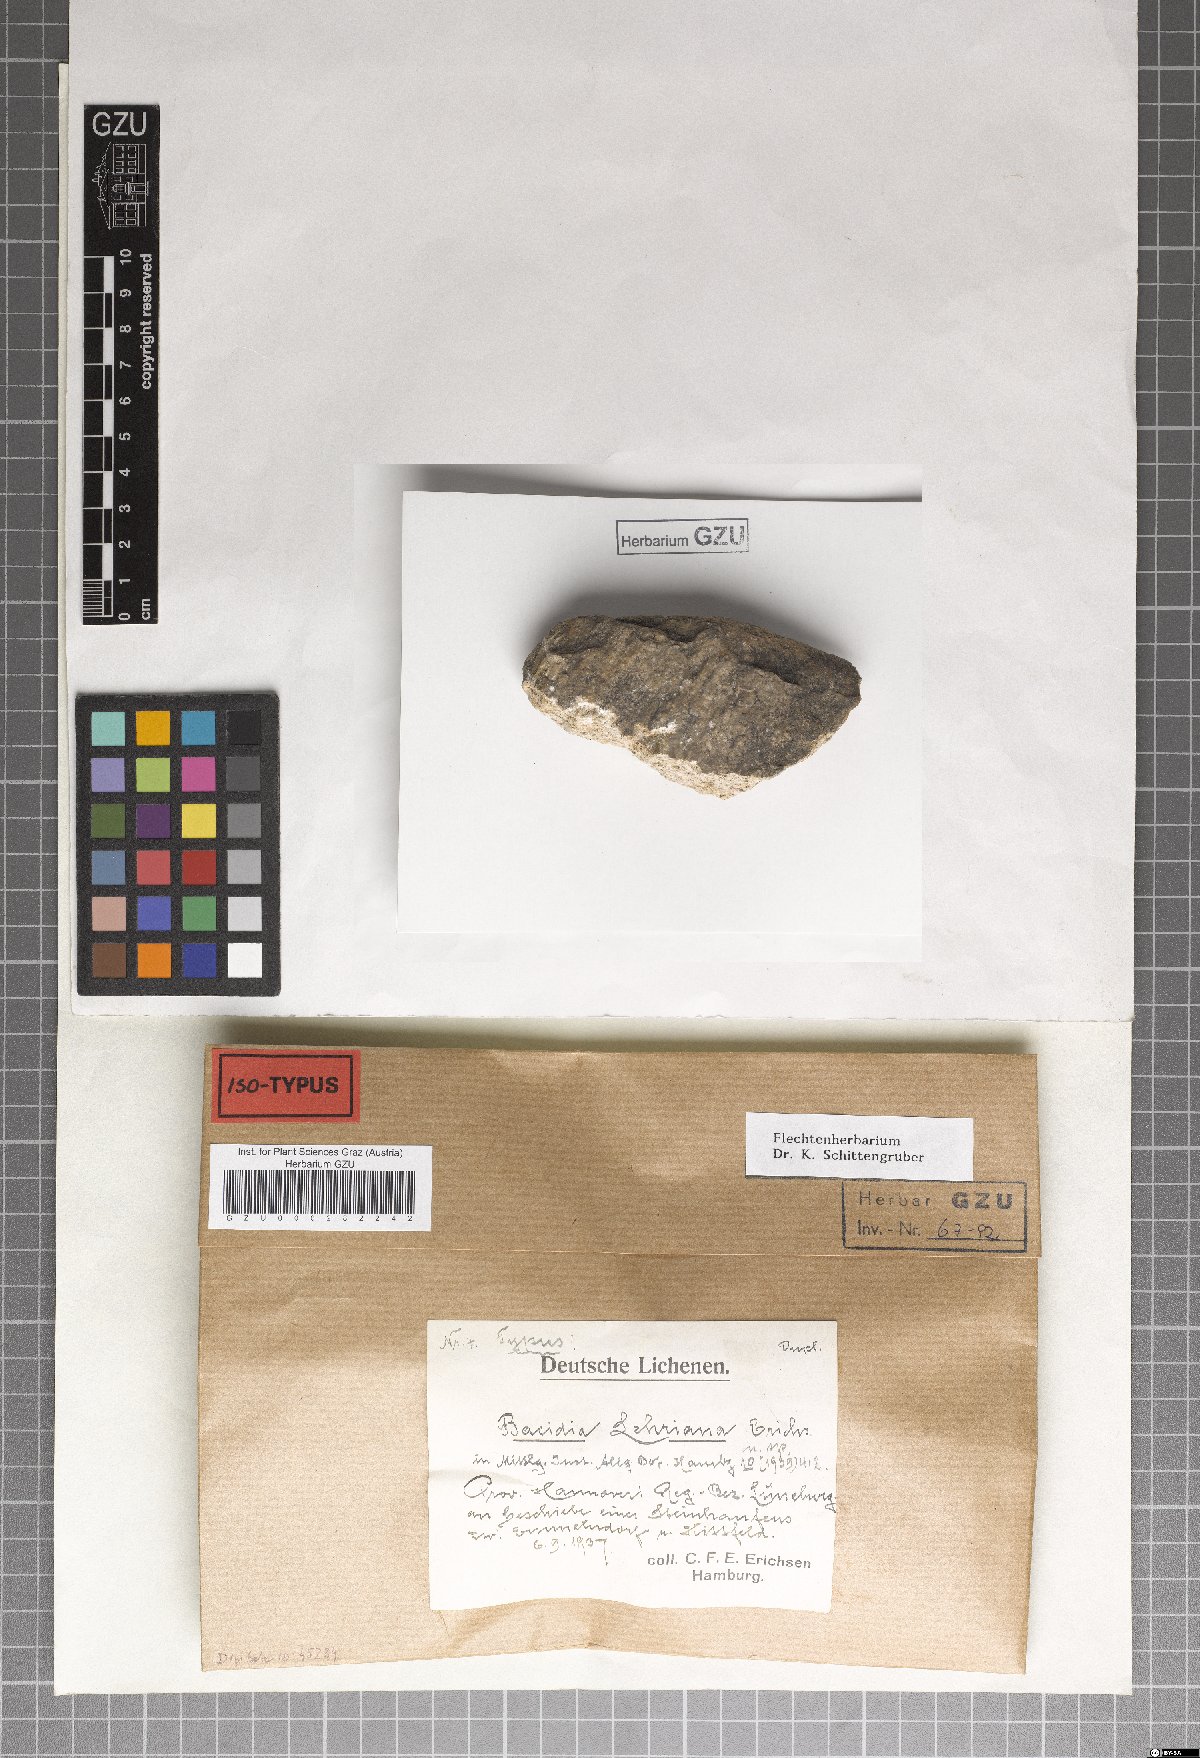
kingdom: Fungi
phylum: Ascomycota
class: Lecanoromycetes
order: Lecanorales
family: Ramalinaceae
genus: Bacidina
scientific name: Bacidina chloroticula
